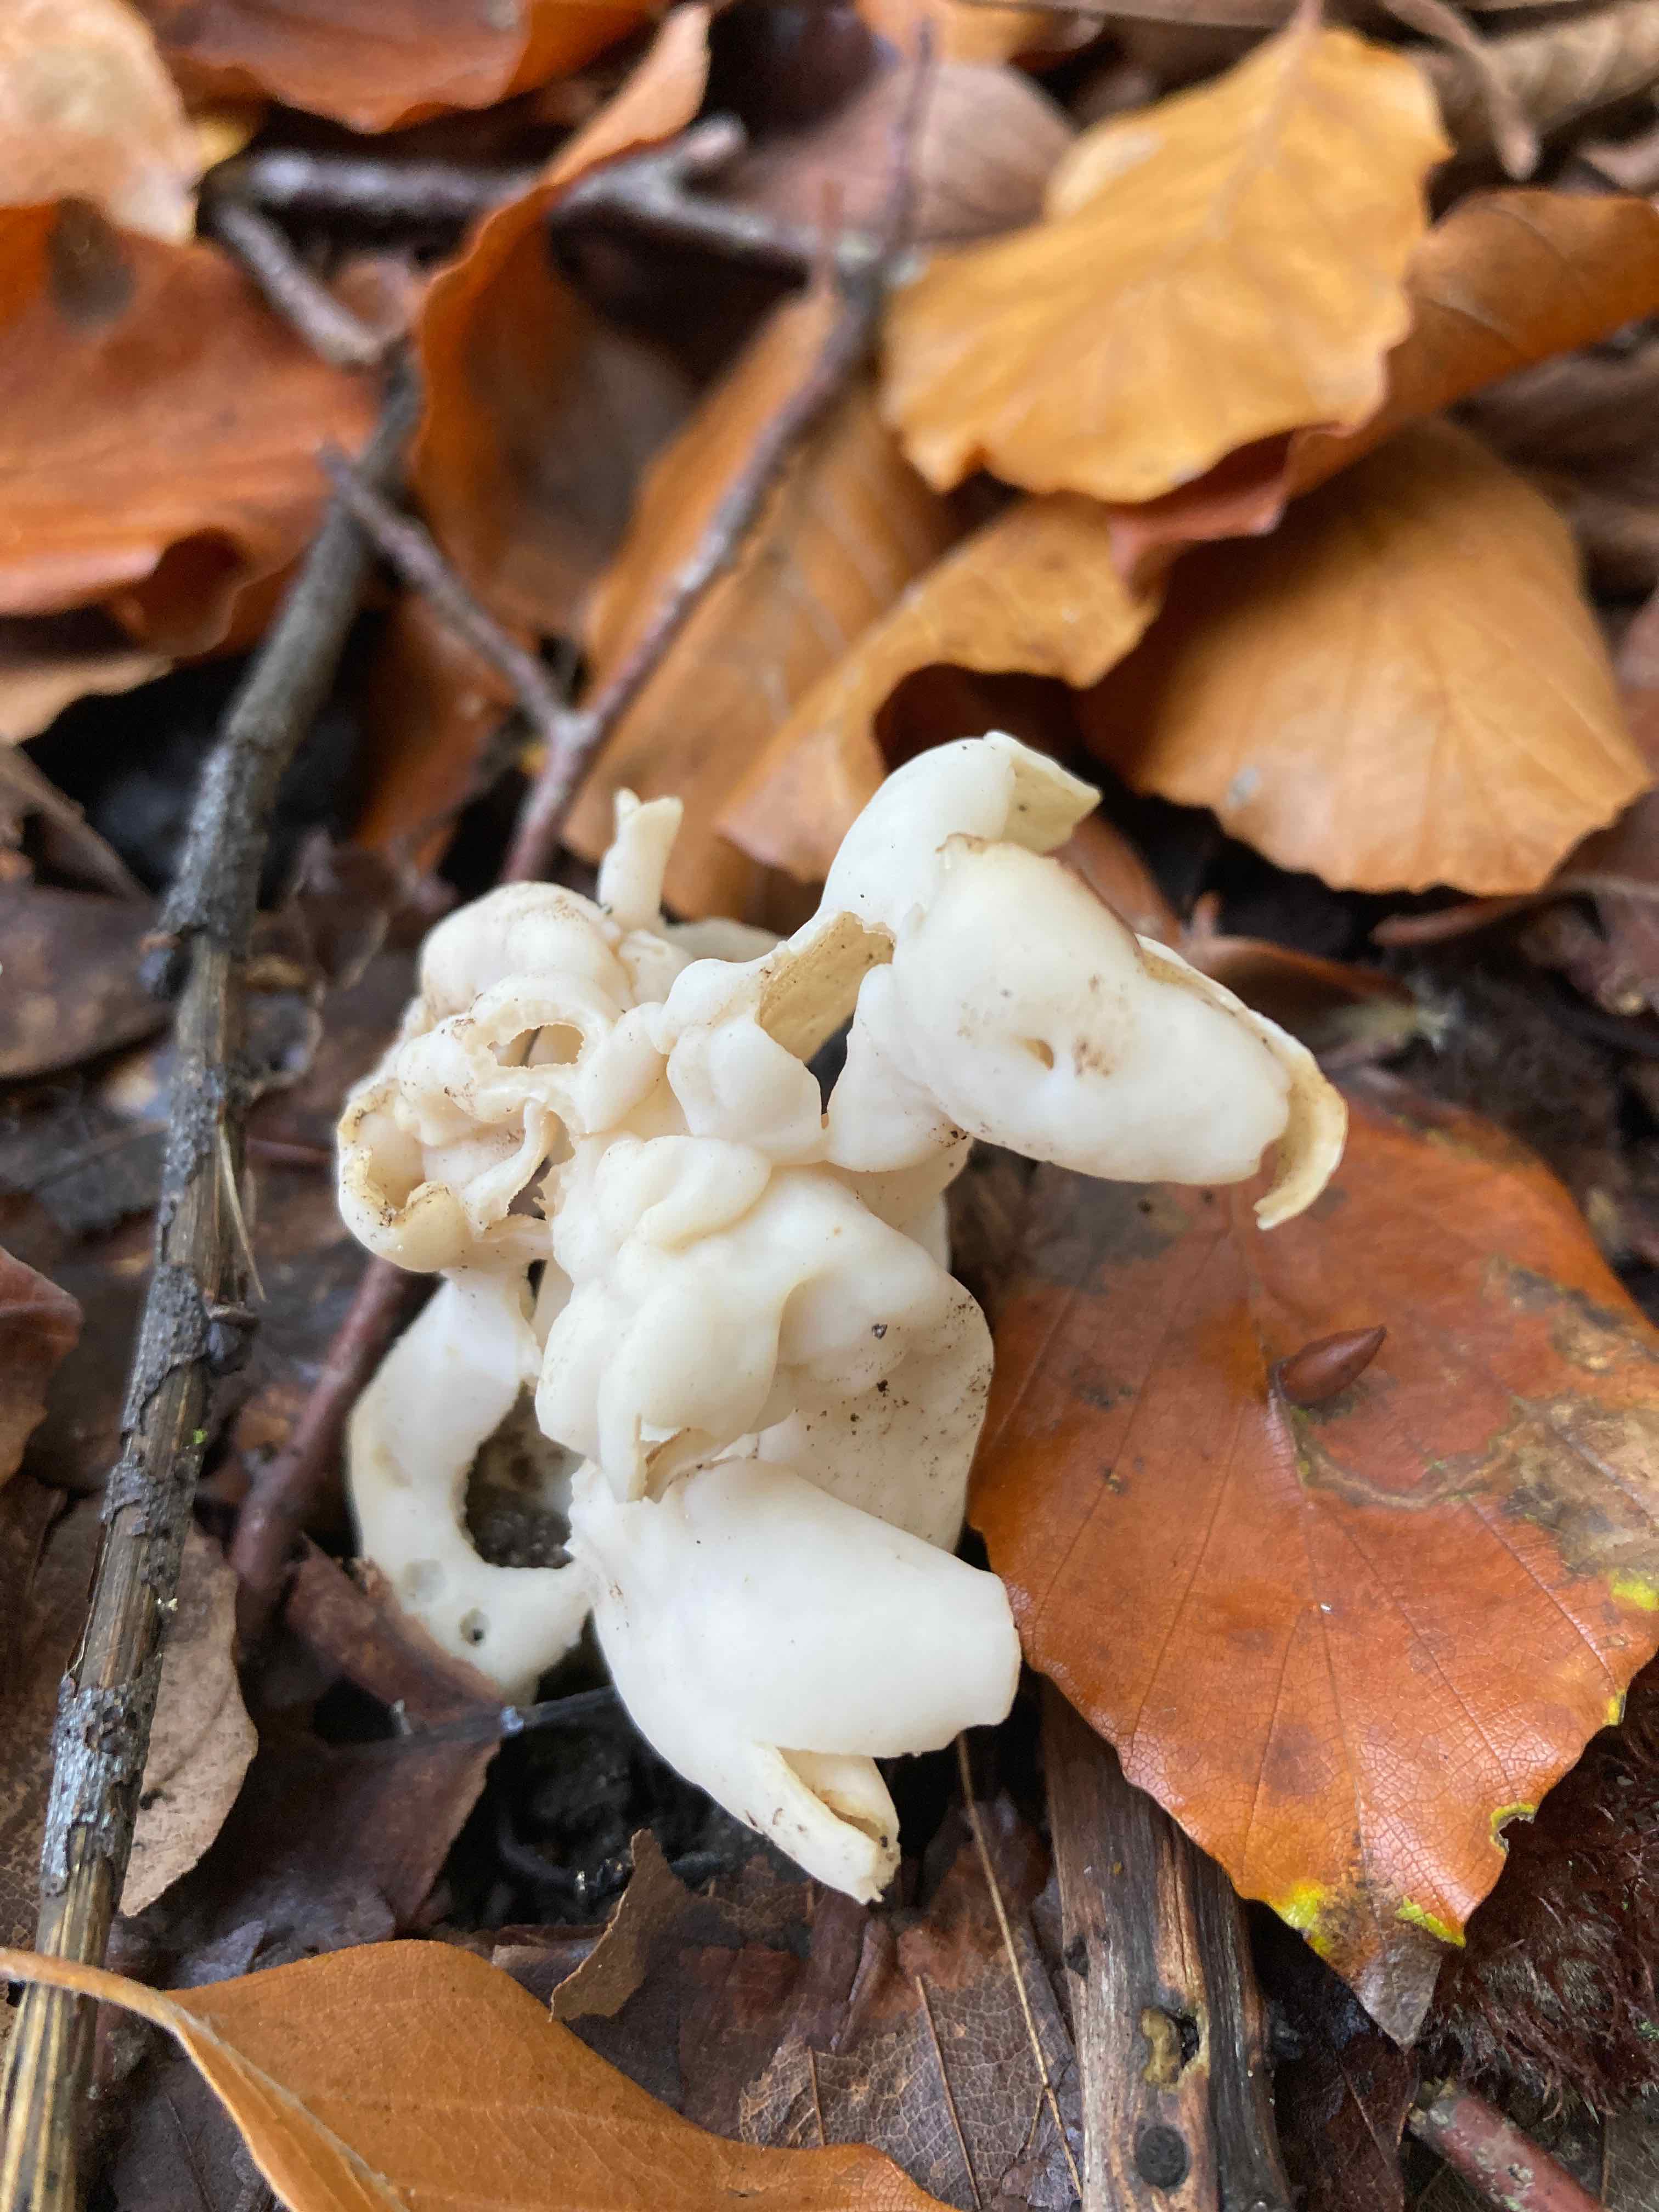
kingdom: Fungi
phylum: Ascomycota
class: Pezizomycetes
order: Pezizales
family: Helvellaceae
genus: Helvella
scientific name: Helvella crispa
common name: kruset foldhat
